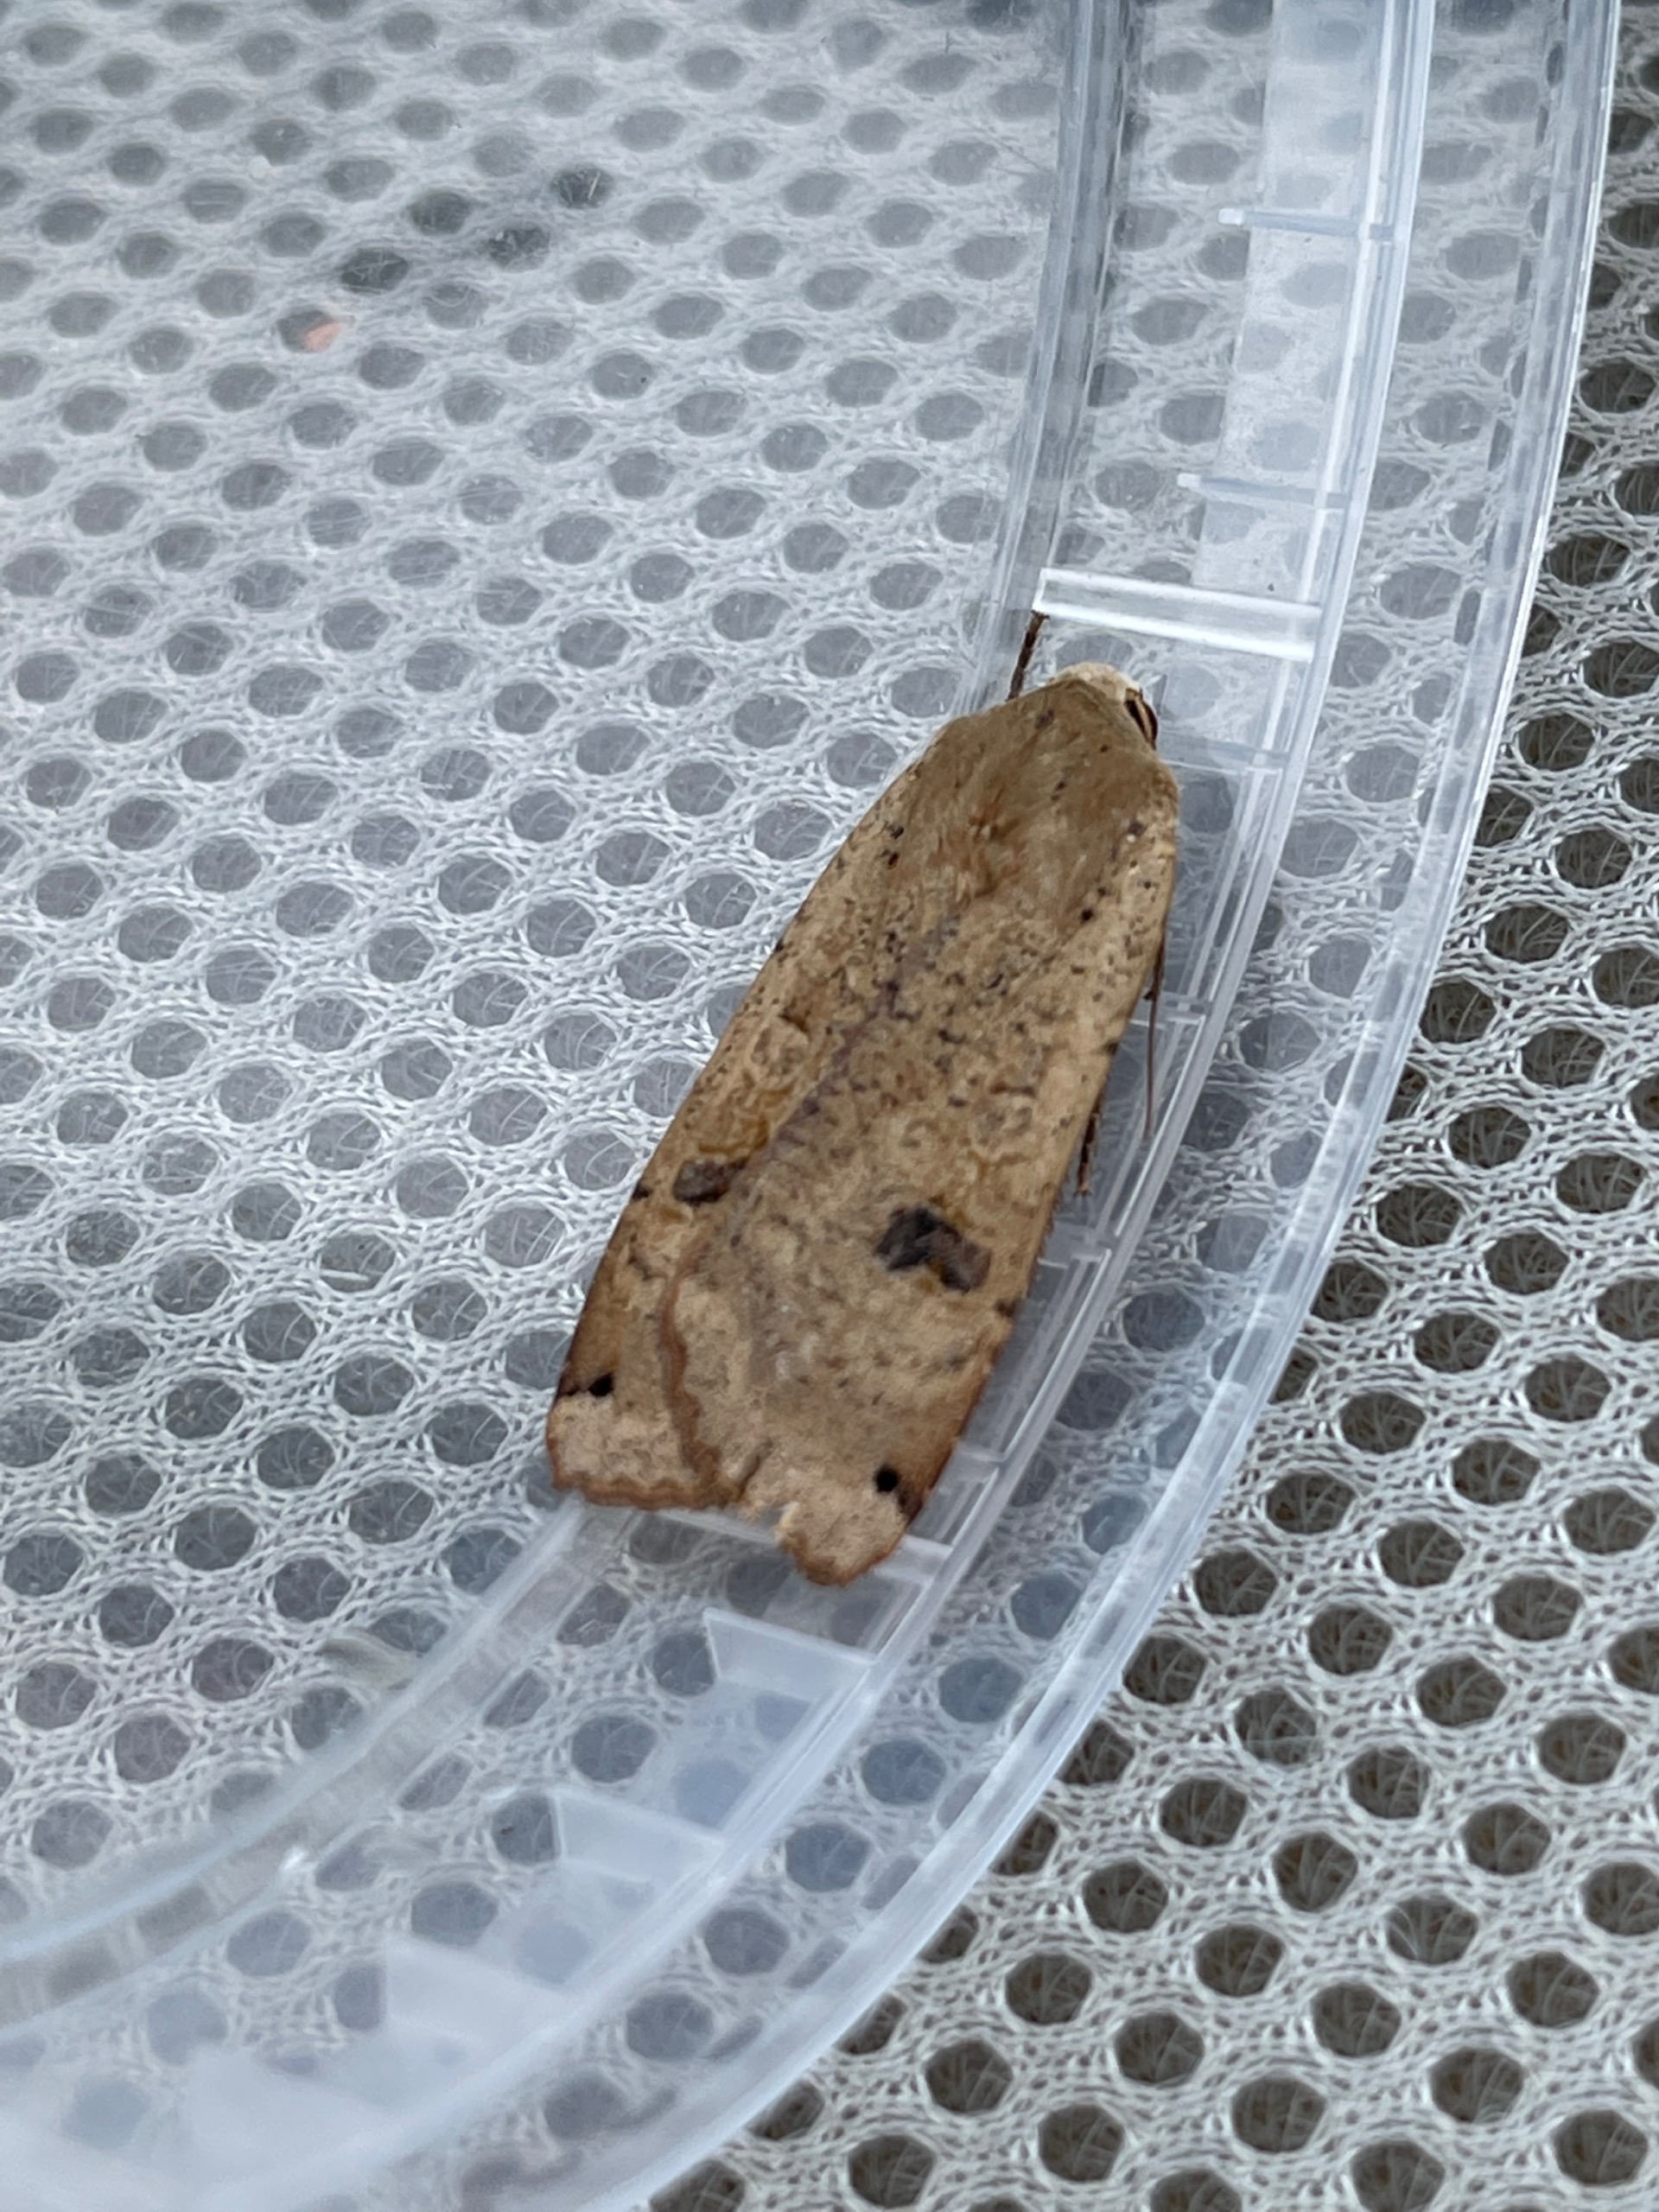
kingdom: Animalia
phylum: Arthropoda
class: Insecta
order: Lepidoptera
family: Noctuidae
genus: Noctua
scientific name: Noctua pronuba
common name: Stor smutugle
